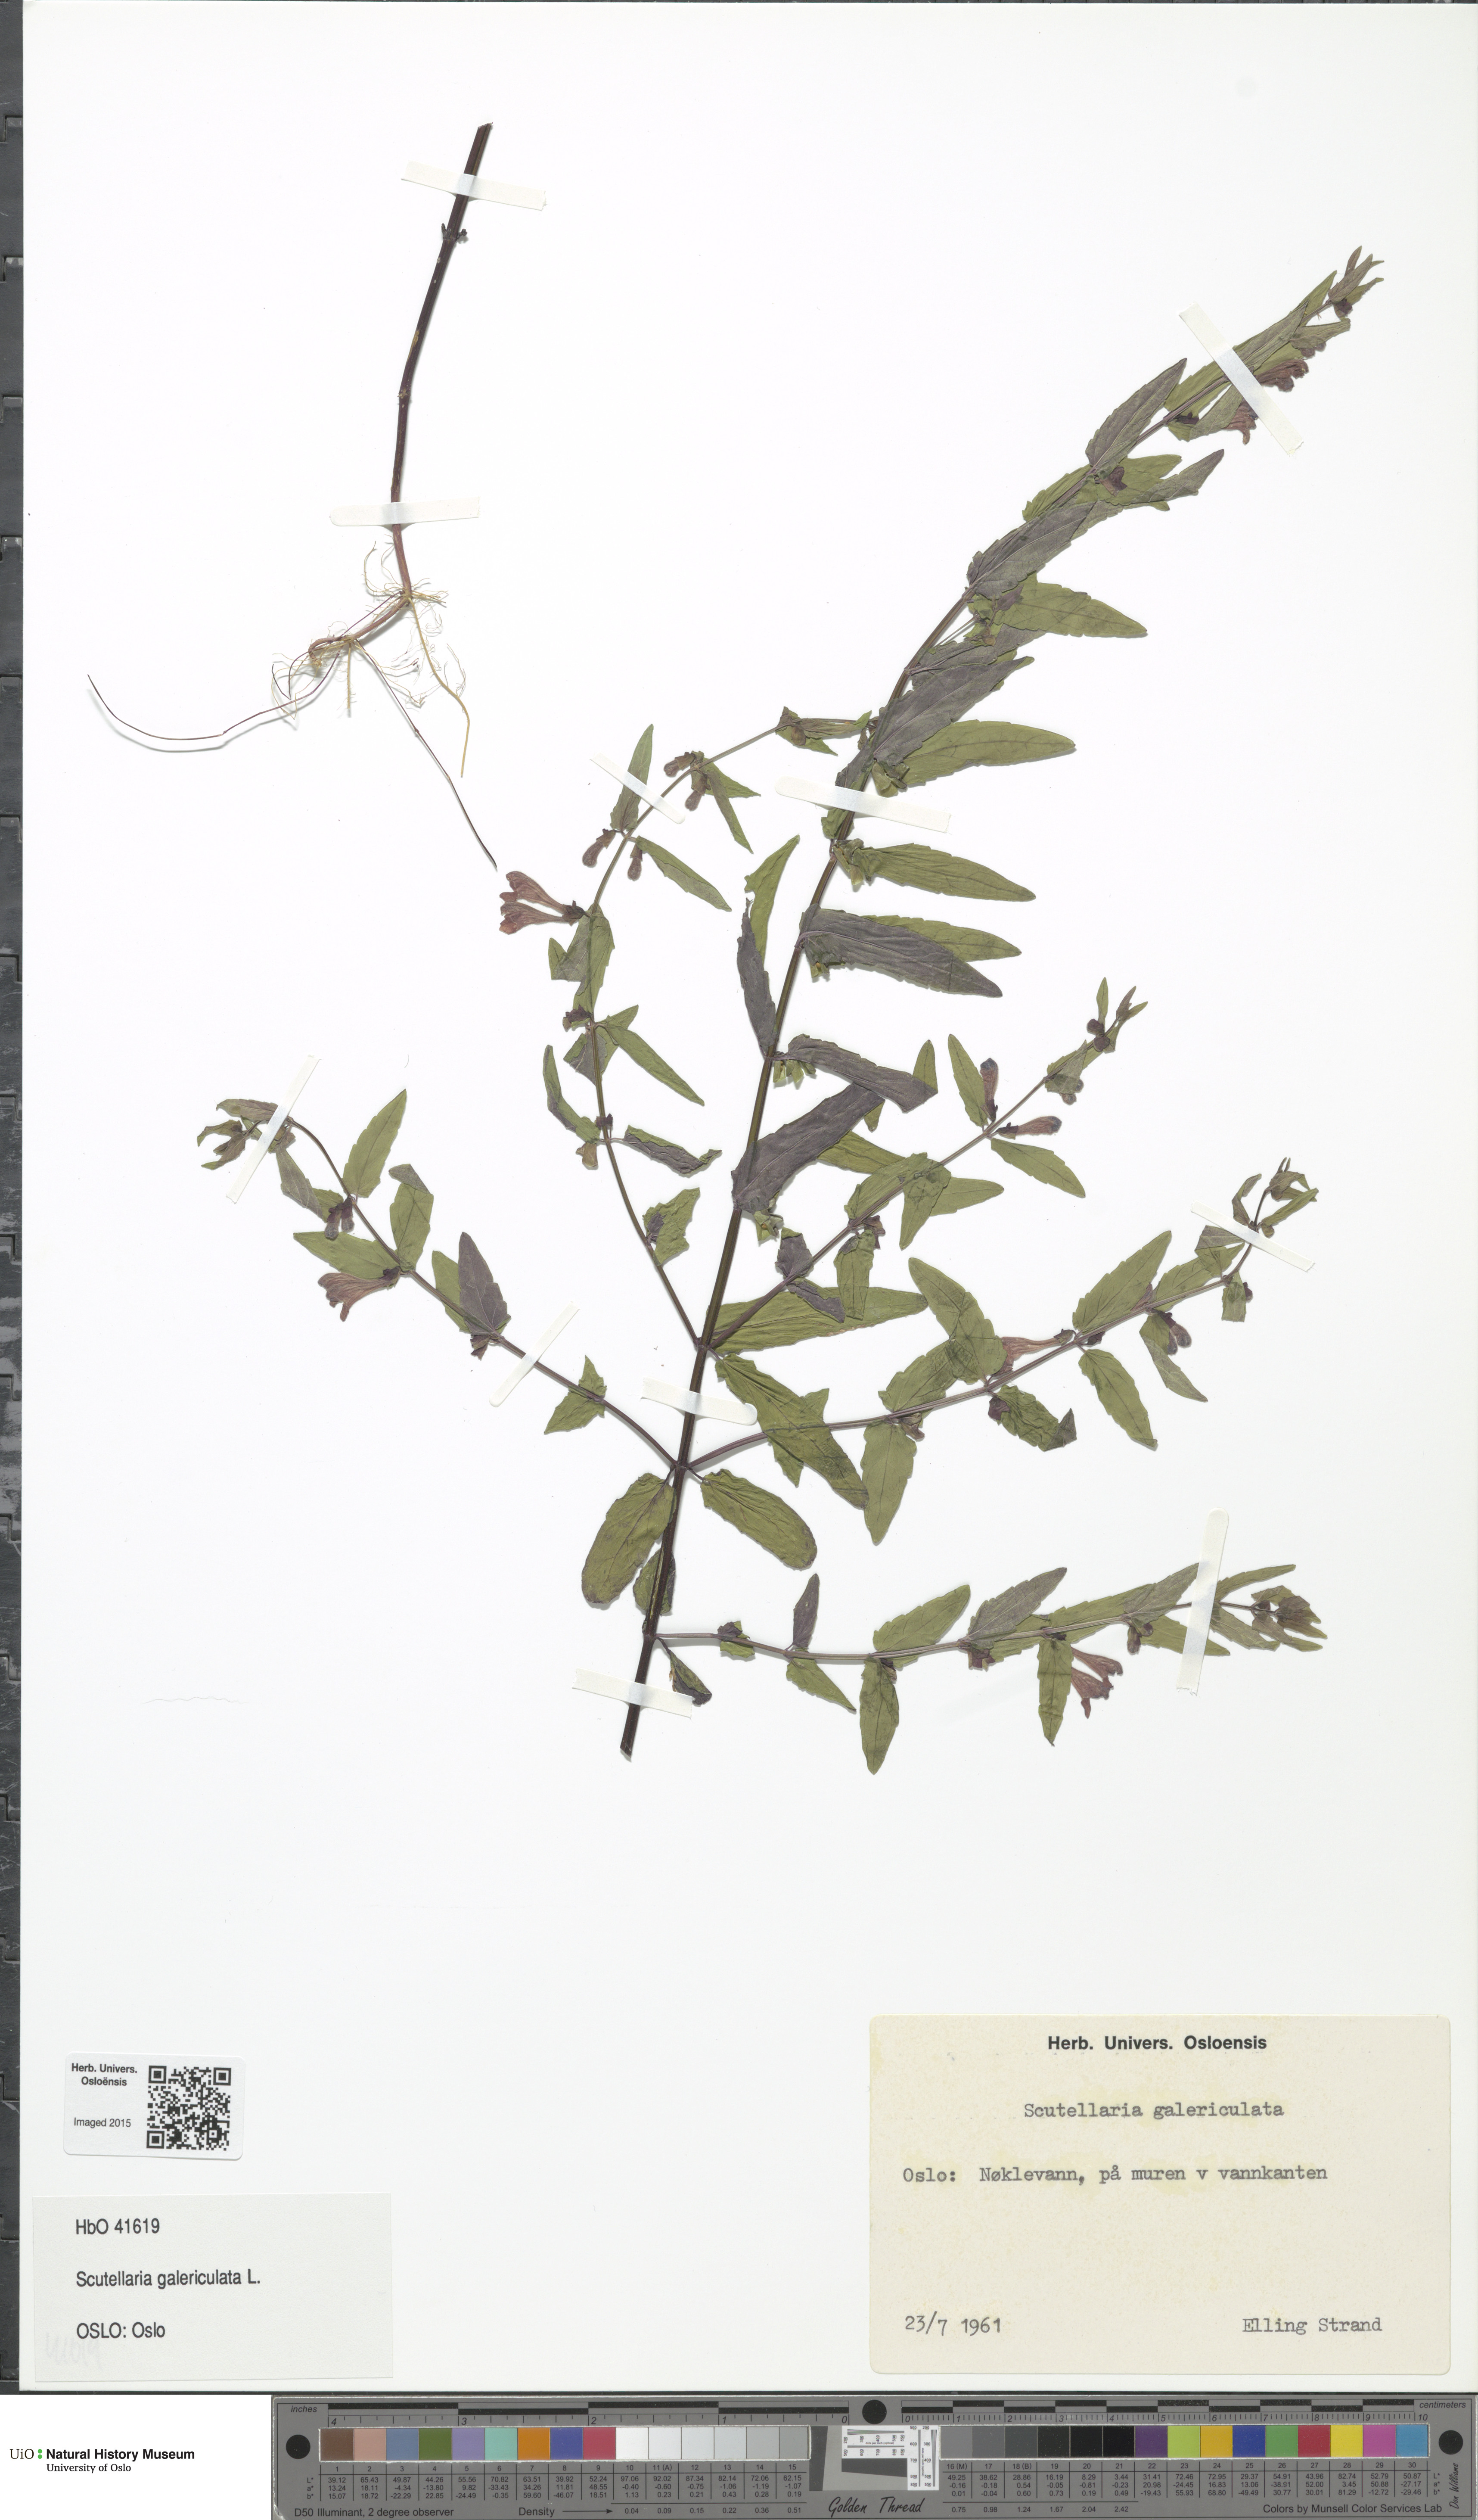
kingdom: Plantae
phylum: Tracheophyta
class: Magnoliopsida
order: Lamiales
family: Lamiaceae
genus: Scutellaria
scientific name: Scutellaria galericulata
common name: Skullcap
